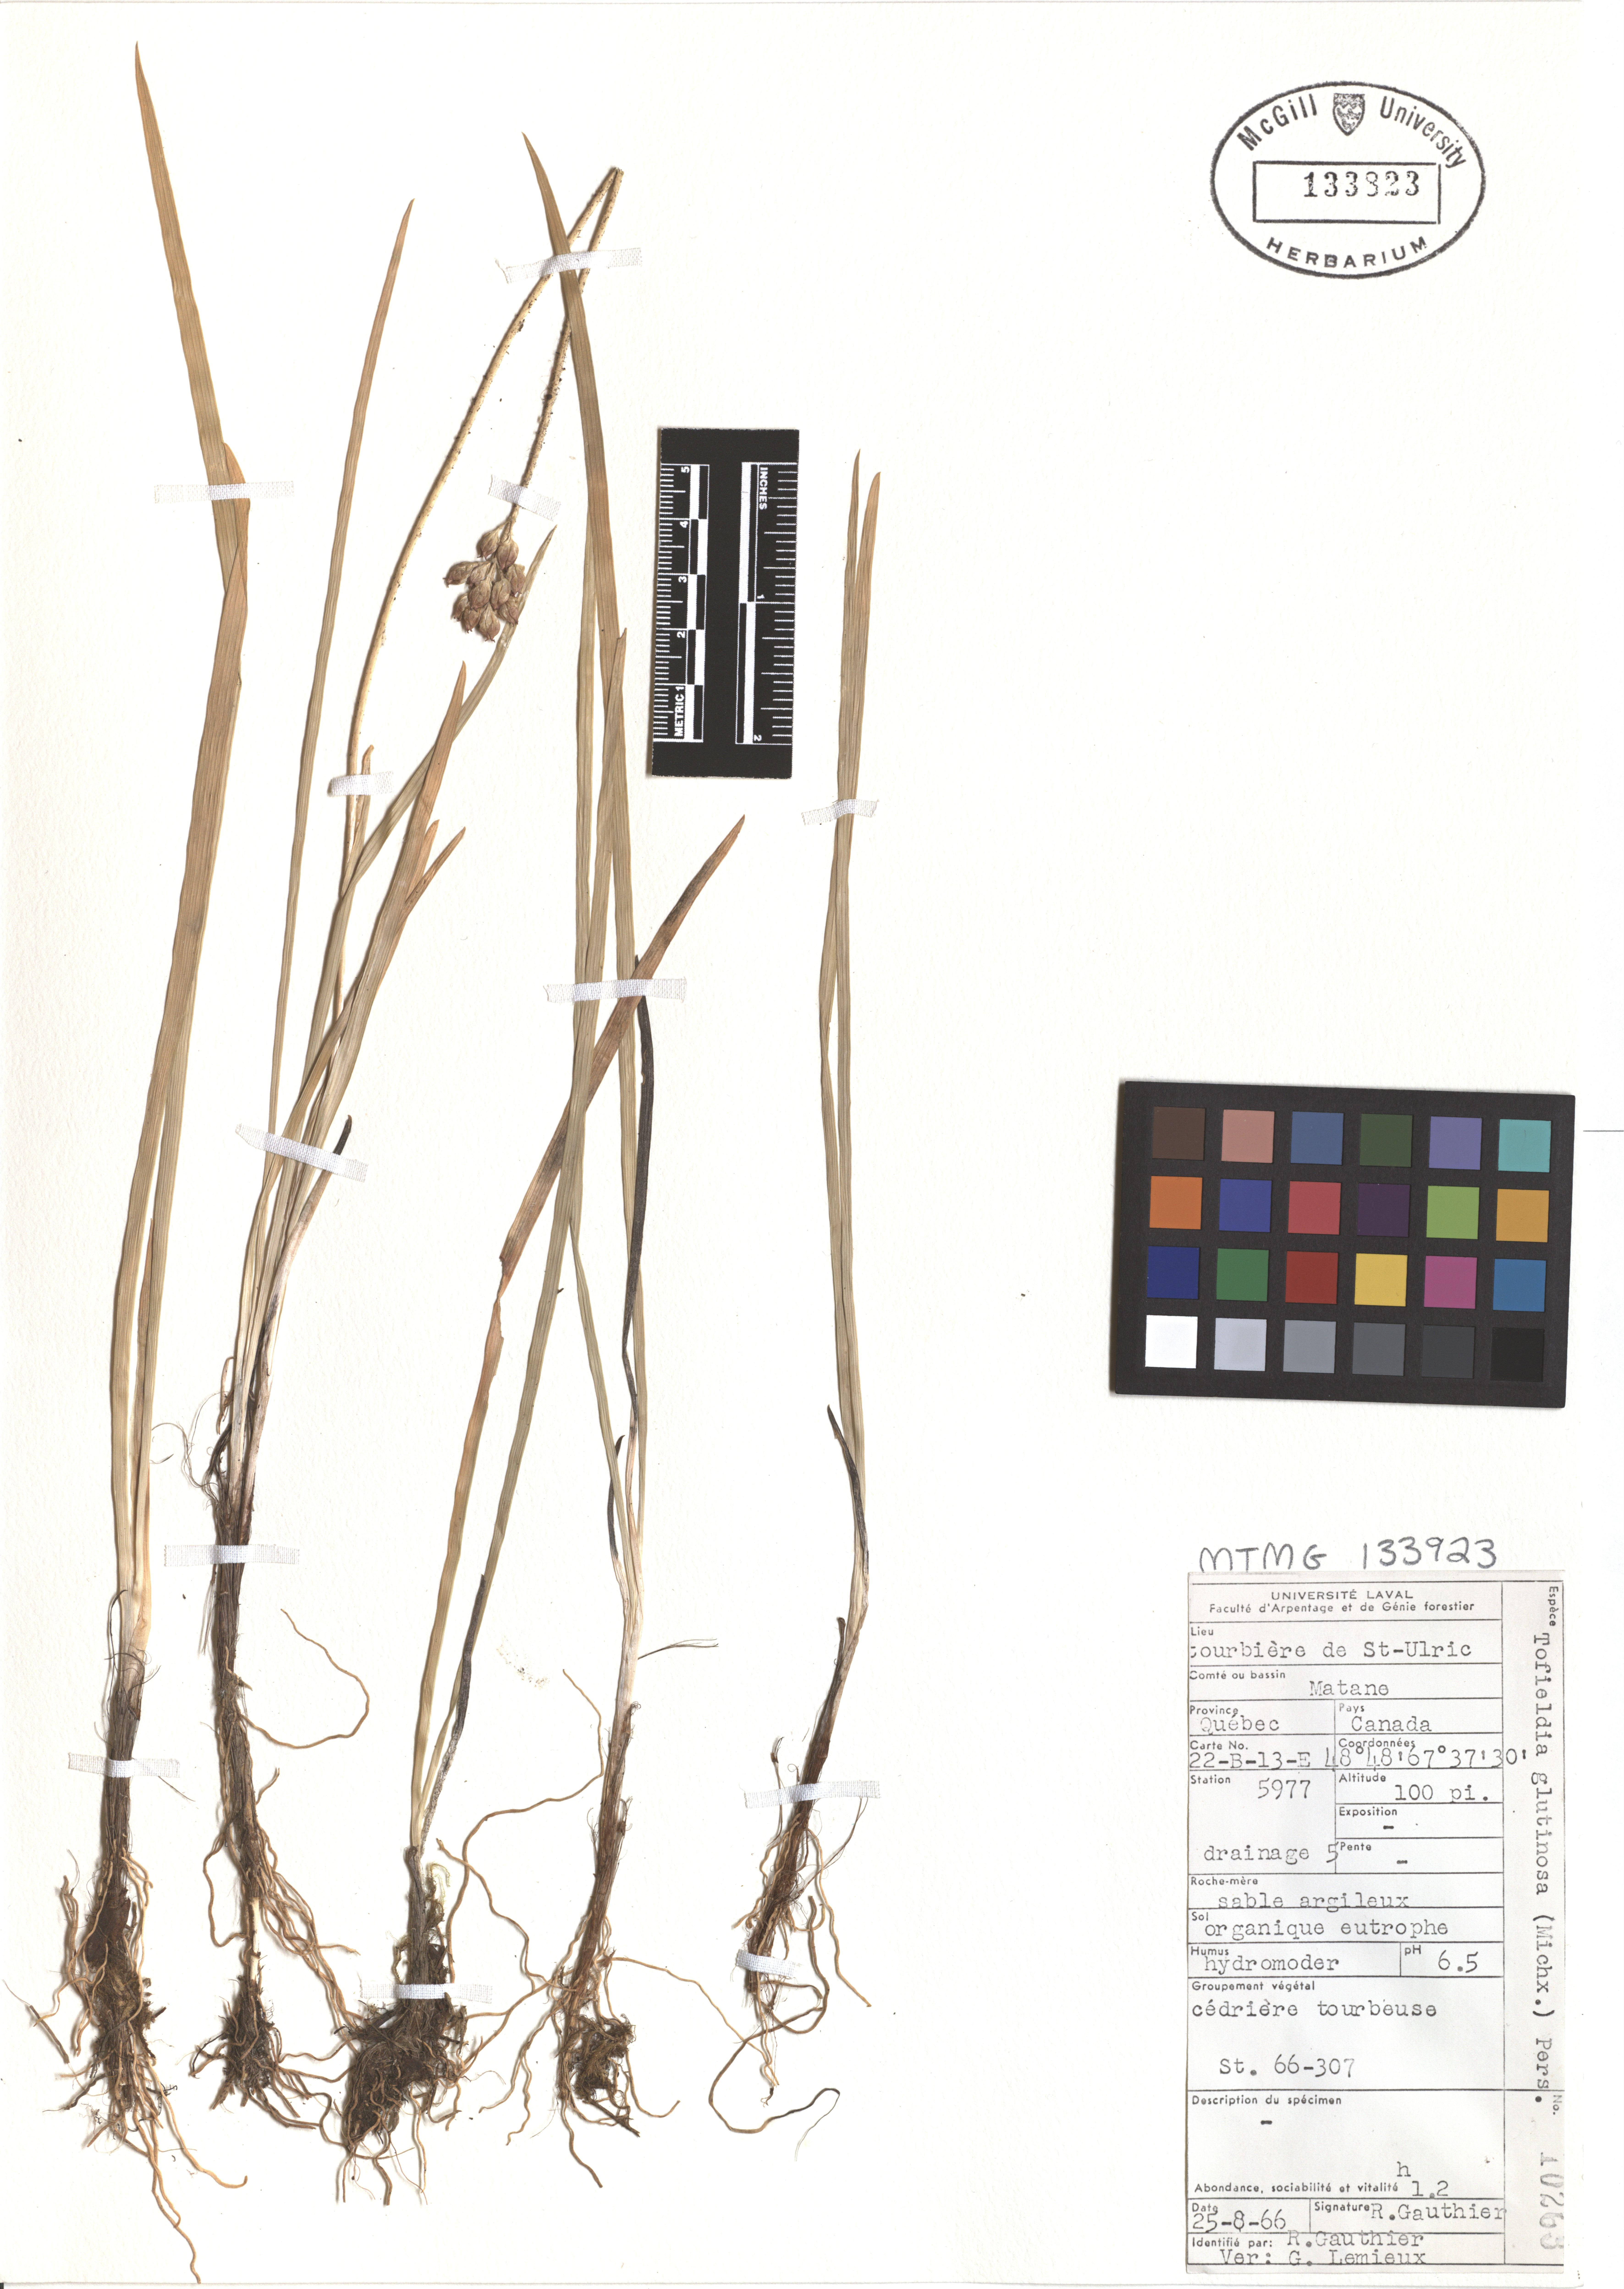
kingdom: Plantae
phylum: Tracheophyta
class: Liliopsida
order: Poales
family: Cyperaceae
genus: Carex
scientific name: Carex woodii
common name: Wood's sedge
